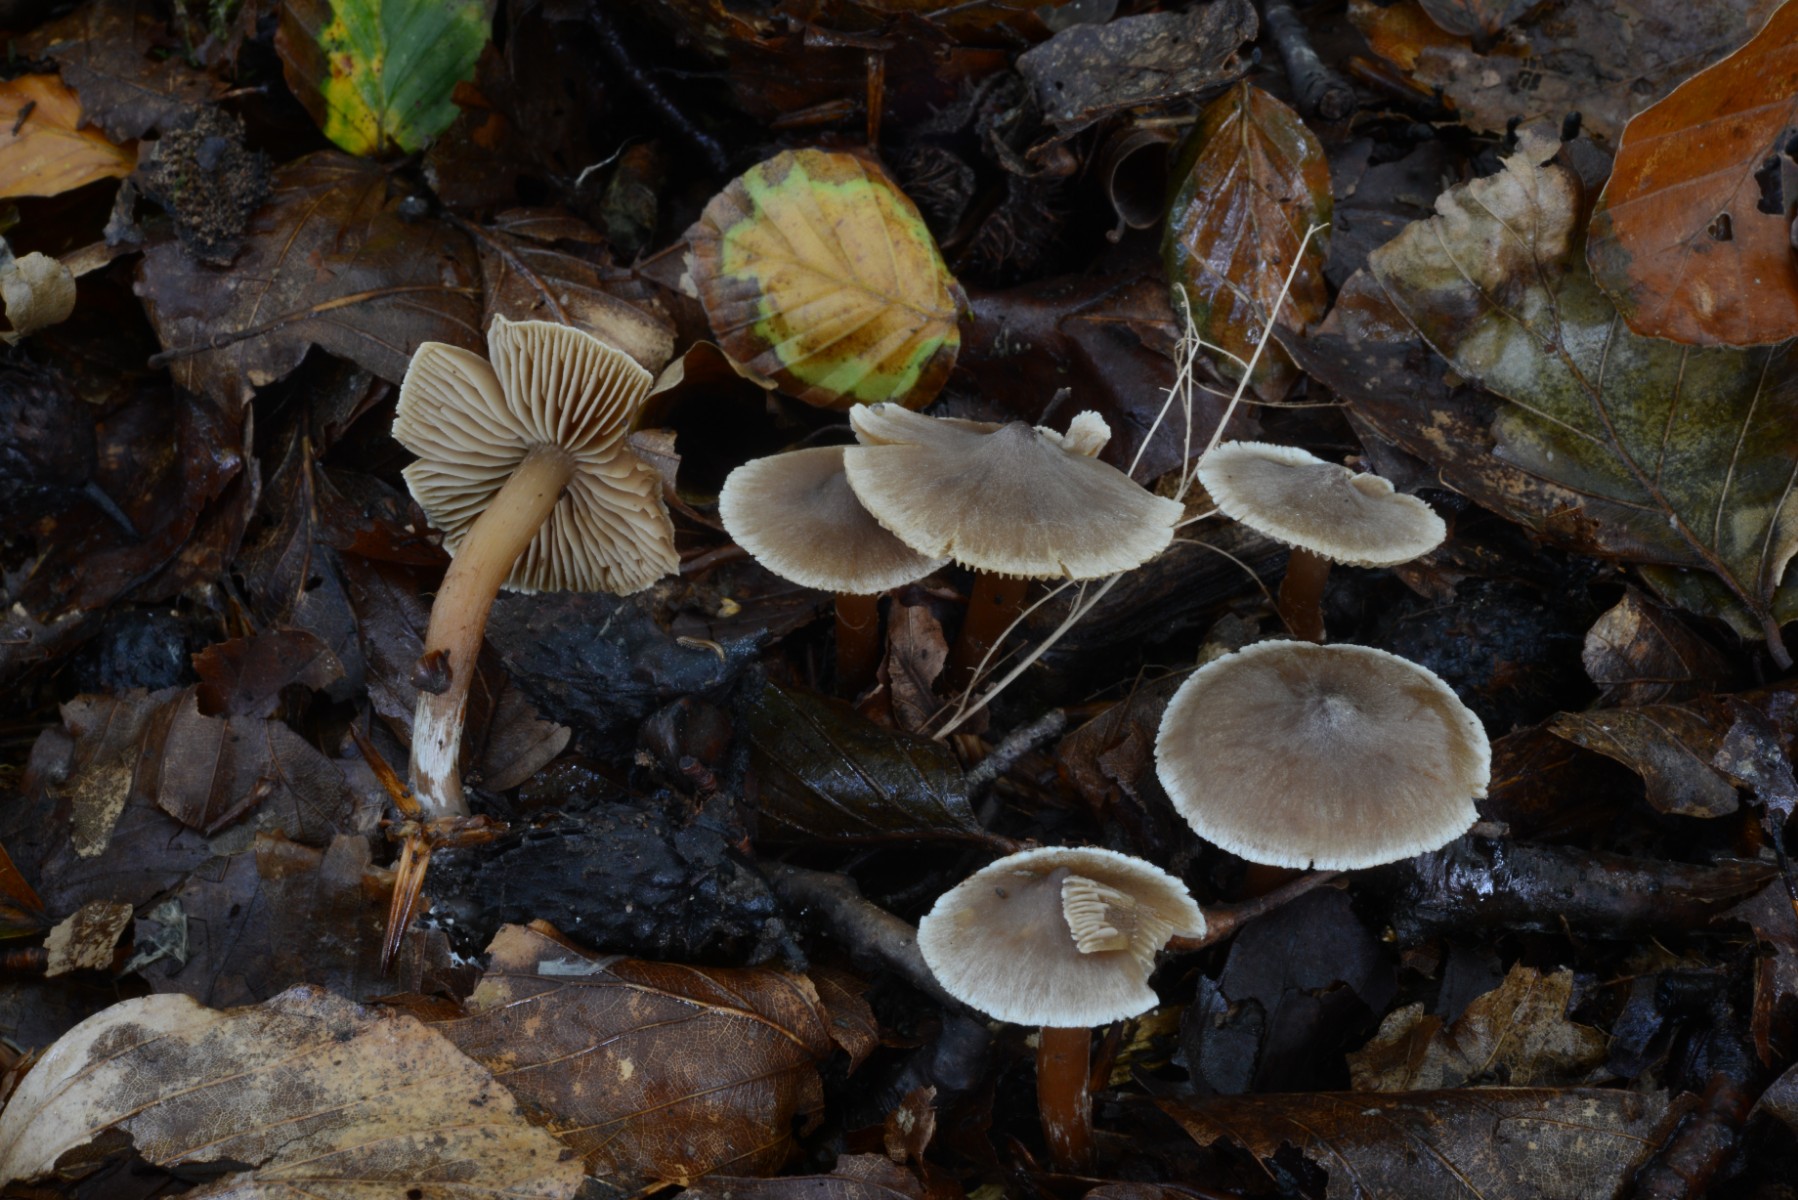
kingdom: Fungi
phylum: Basidiomycota
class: Agaricomycetes
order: Agaricales
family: Cortinariaceae
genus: Cortinarius
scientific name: Cortinarius elaphinicolor
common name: glat slørhat
